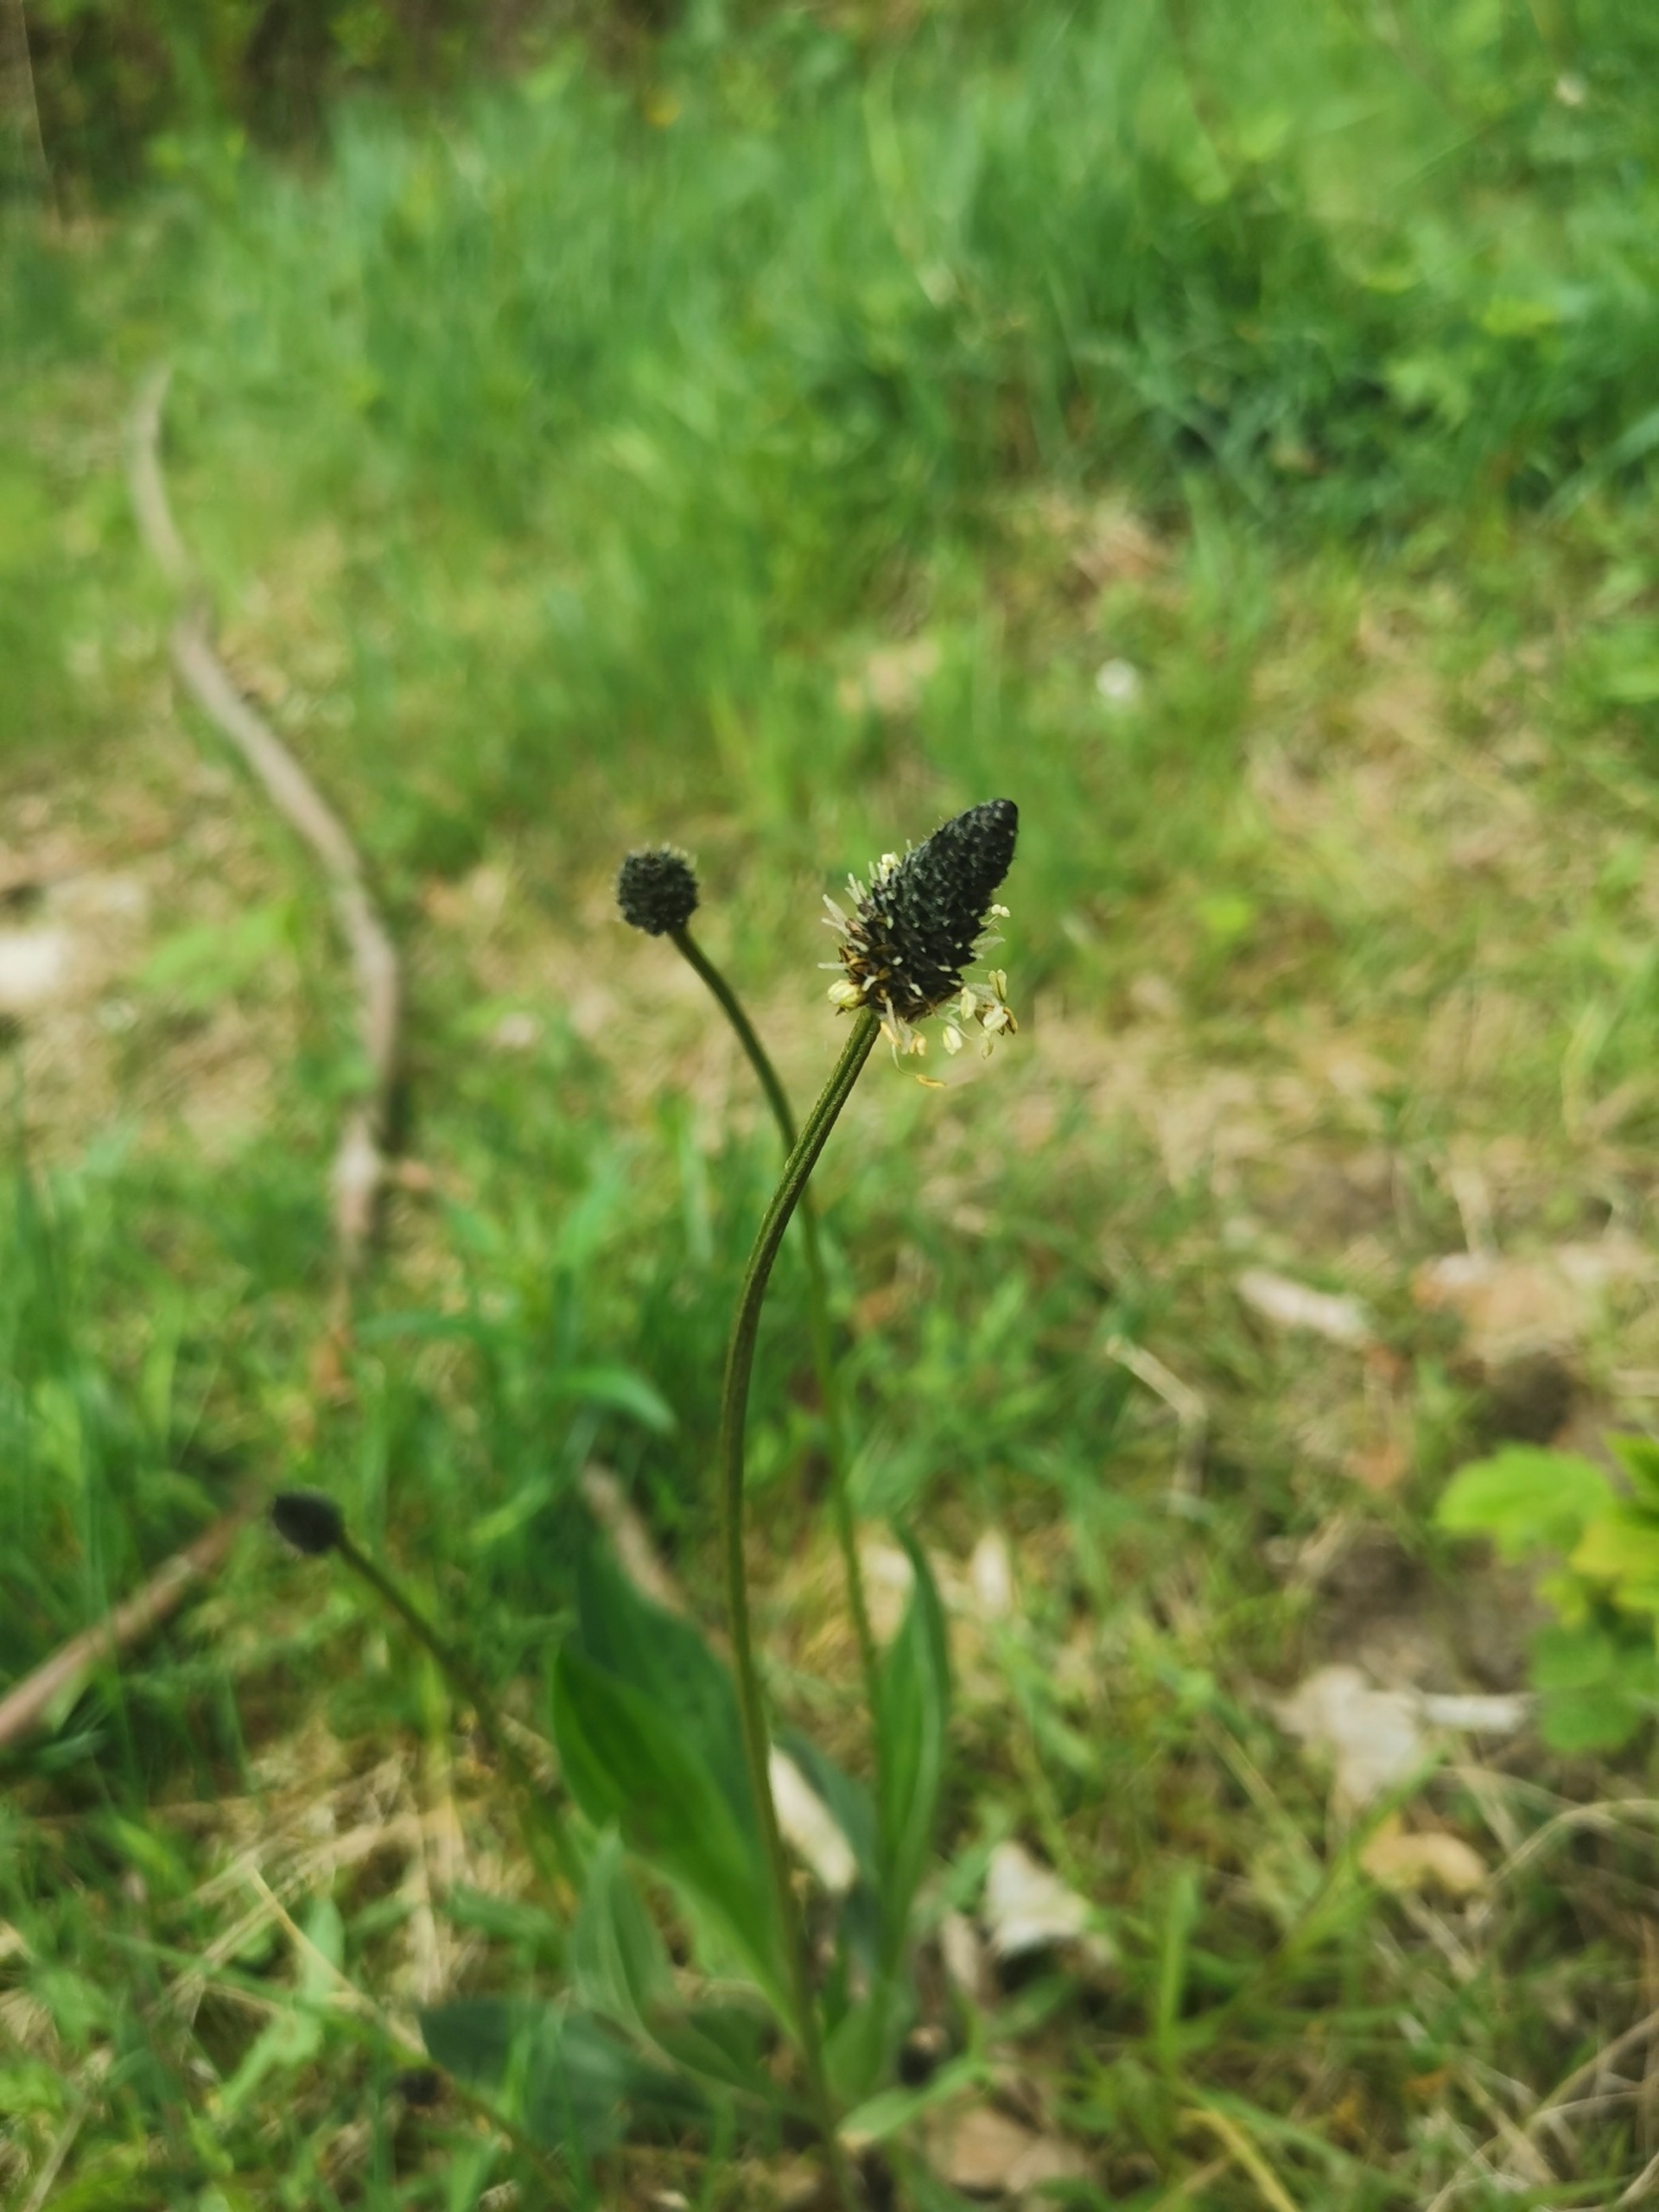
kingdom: Plantae
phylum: Tracheophyta
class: Magnoliopsida
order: Lamiales
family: Plantaginaceae
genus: Plantago
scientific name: Plantago lanceolata
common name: Lancet-vejbred
